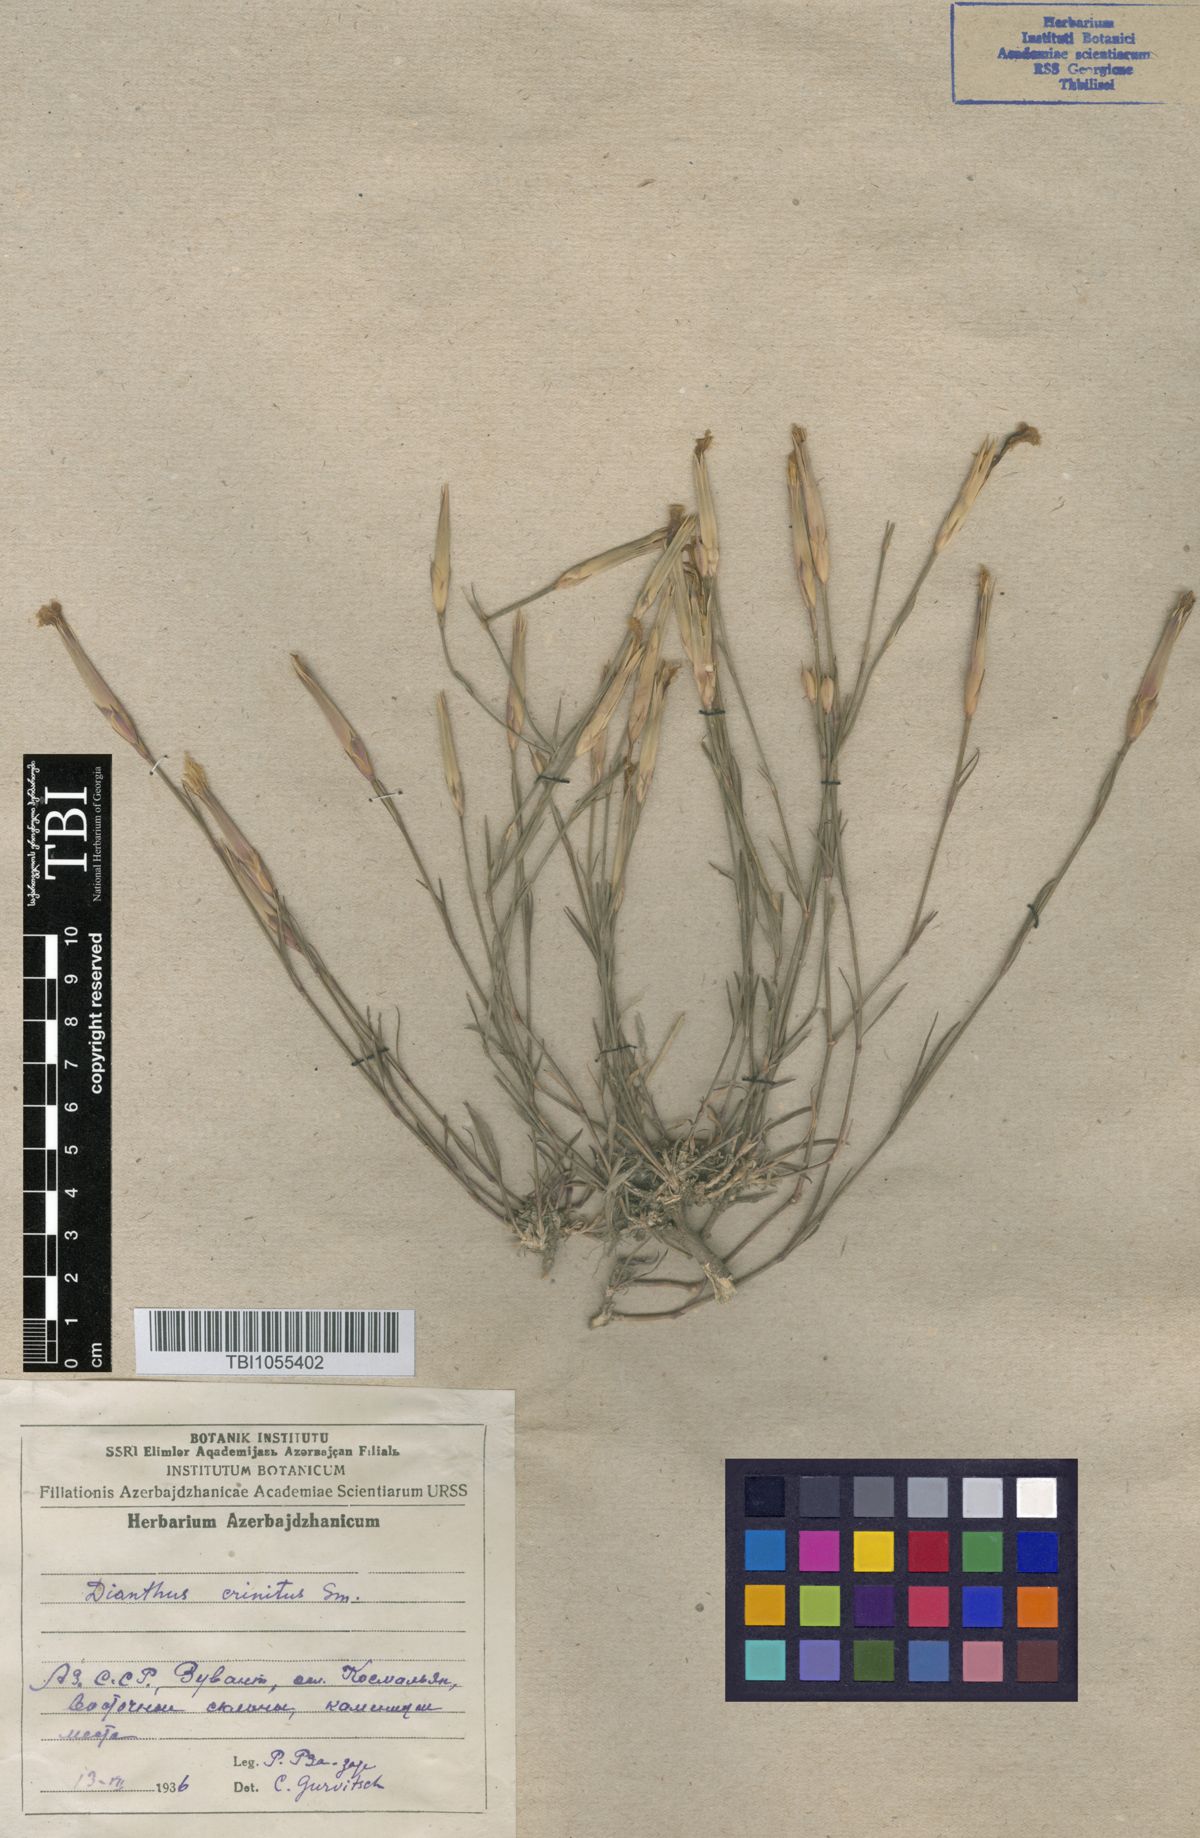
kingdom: Plantae
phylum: Tracheophyta
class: Magnoliopsida
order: Caryophyllales
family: Caryophyllaceae
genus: Dianthus
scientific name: Dianthus crinitus
